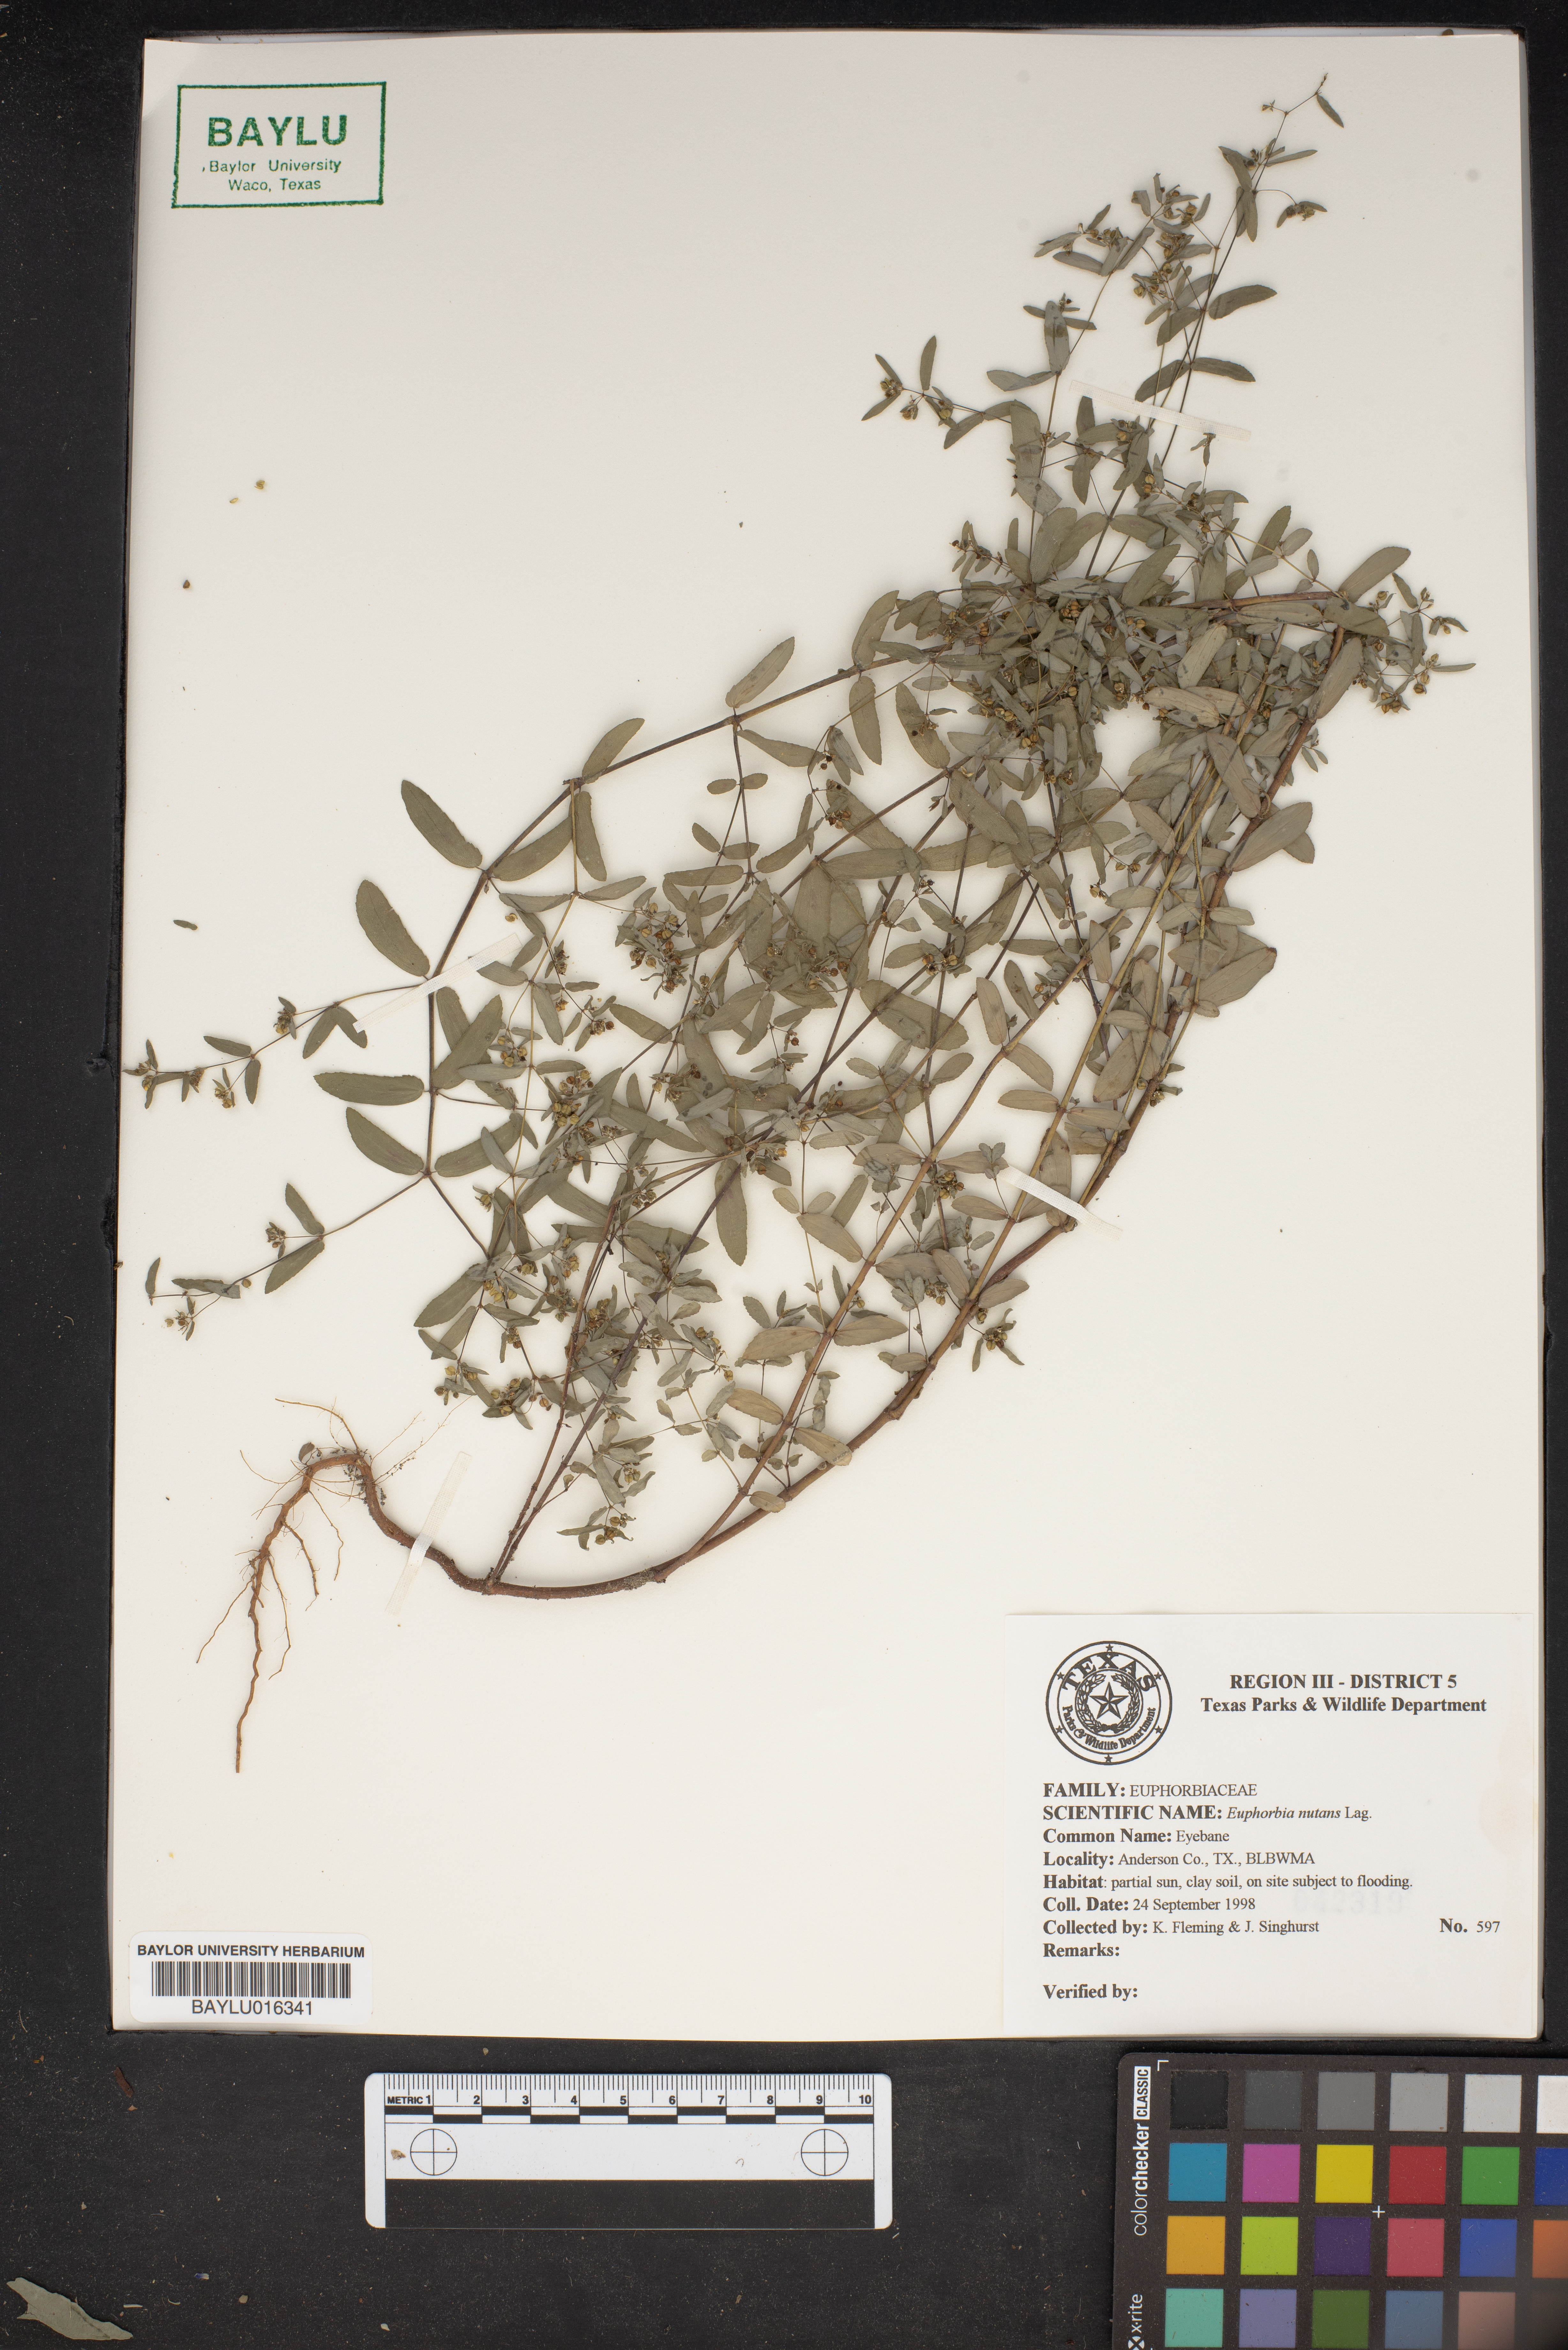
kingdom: Plantae
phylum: Tracheophyta
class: Magnoliopsida
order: Malpighiales
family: Euphorbiaceae
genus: Euphorbia
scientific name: Euphorbia nutans
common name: Eyebane
